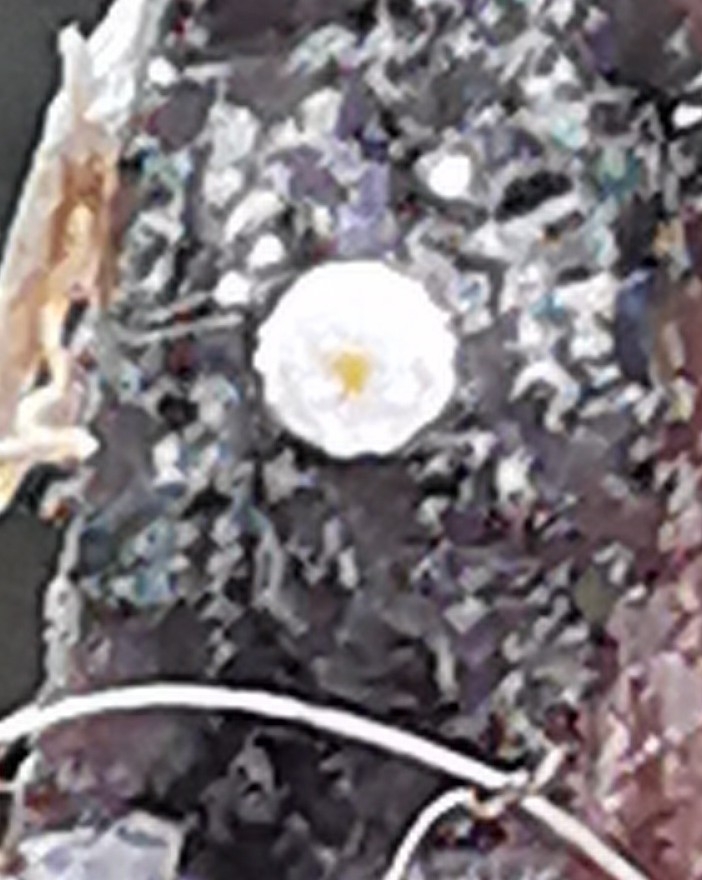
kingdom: Fungi
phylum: Ascomycota
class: Leotiomycetes
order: Helotiales
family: Lachnaceae
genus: Capitotricha
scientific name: Capitotricha bicolor
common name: prægtig frynseskive
